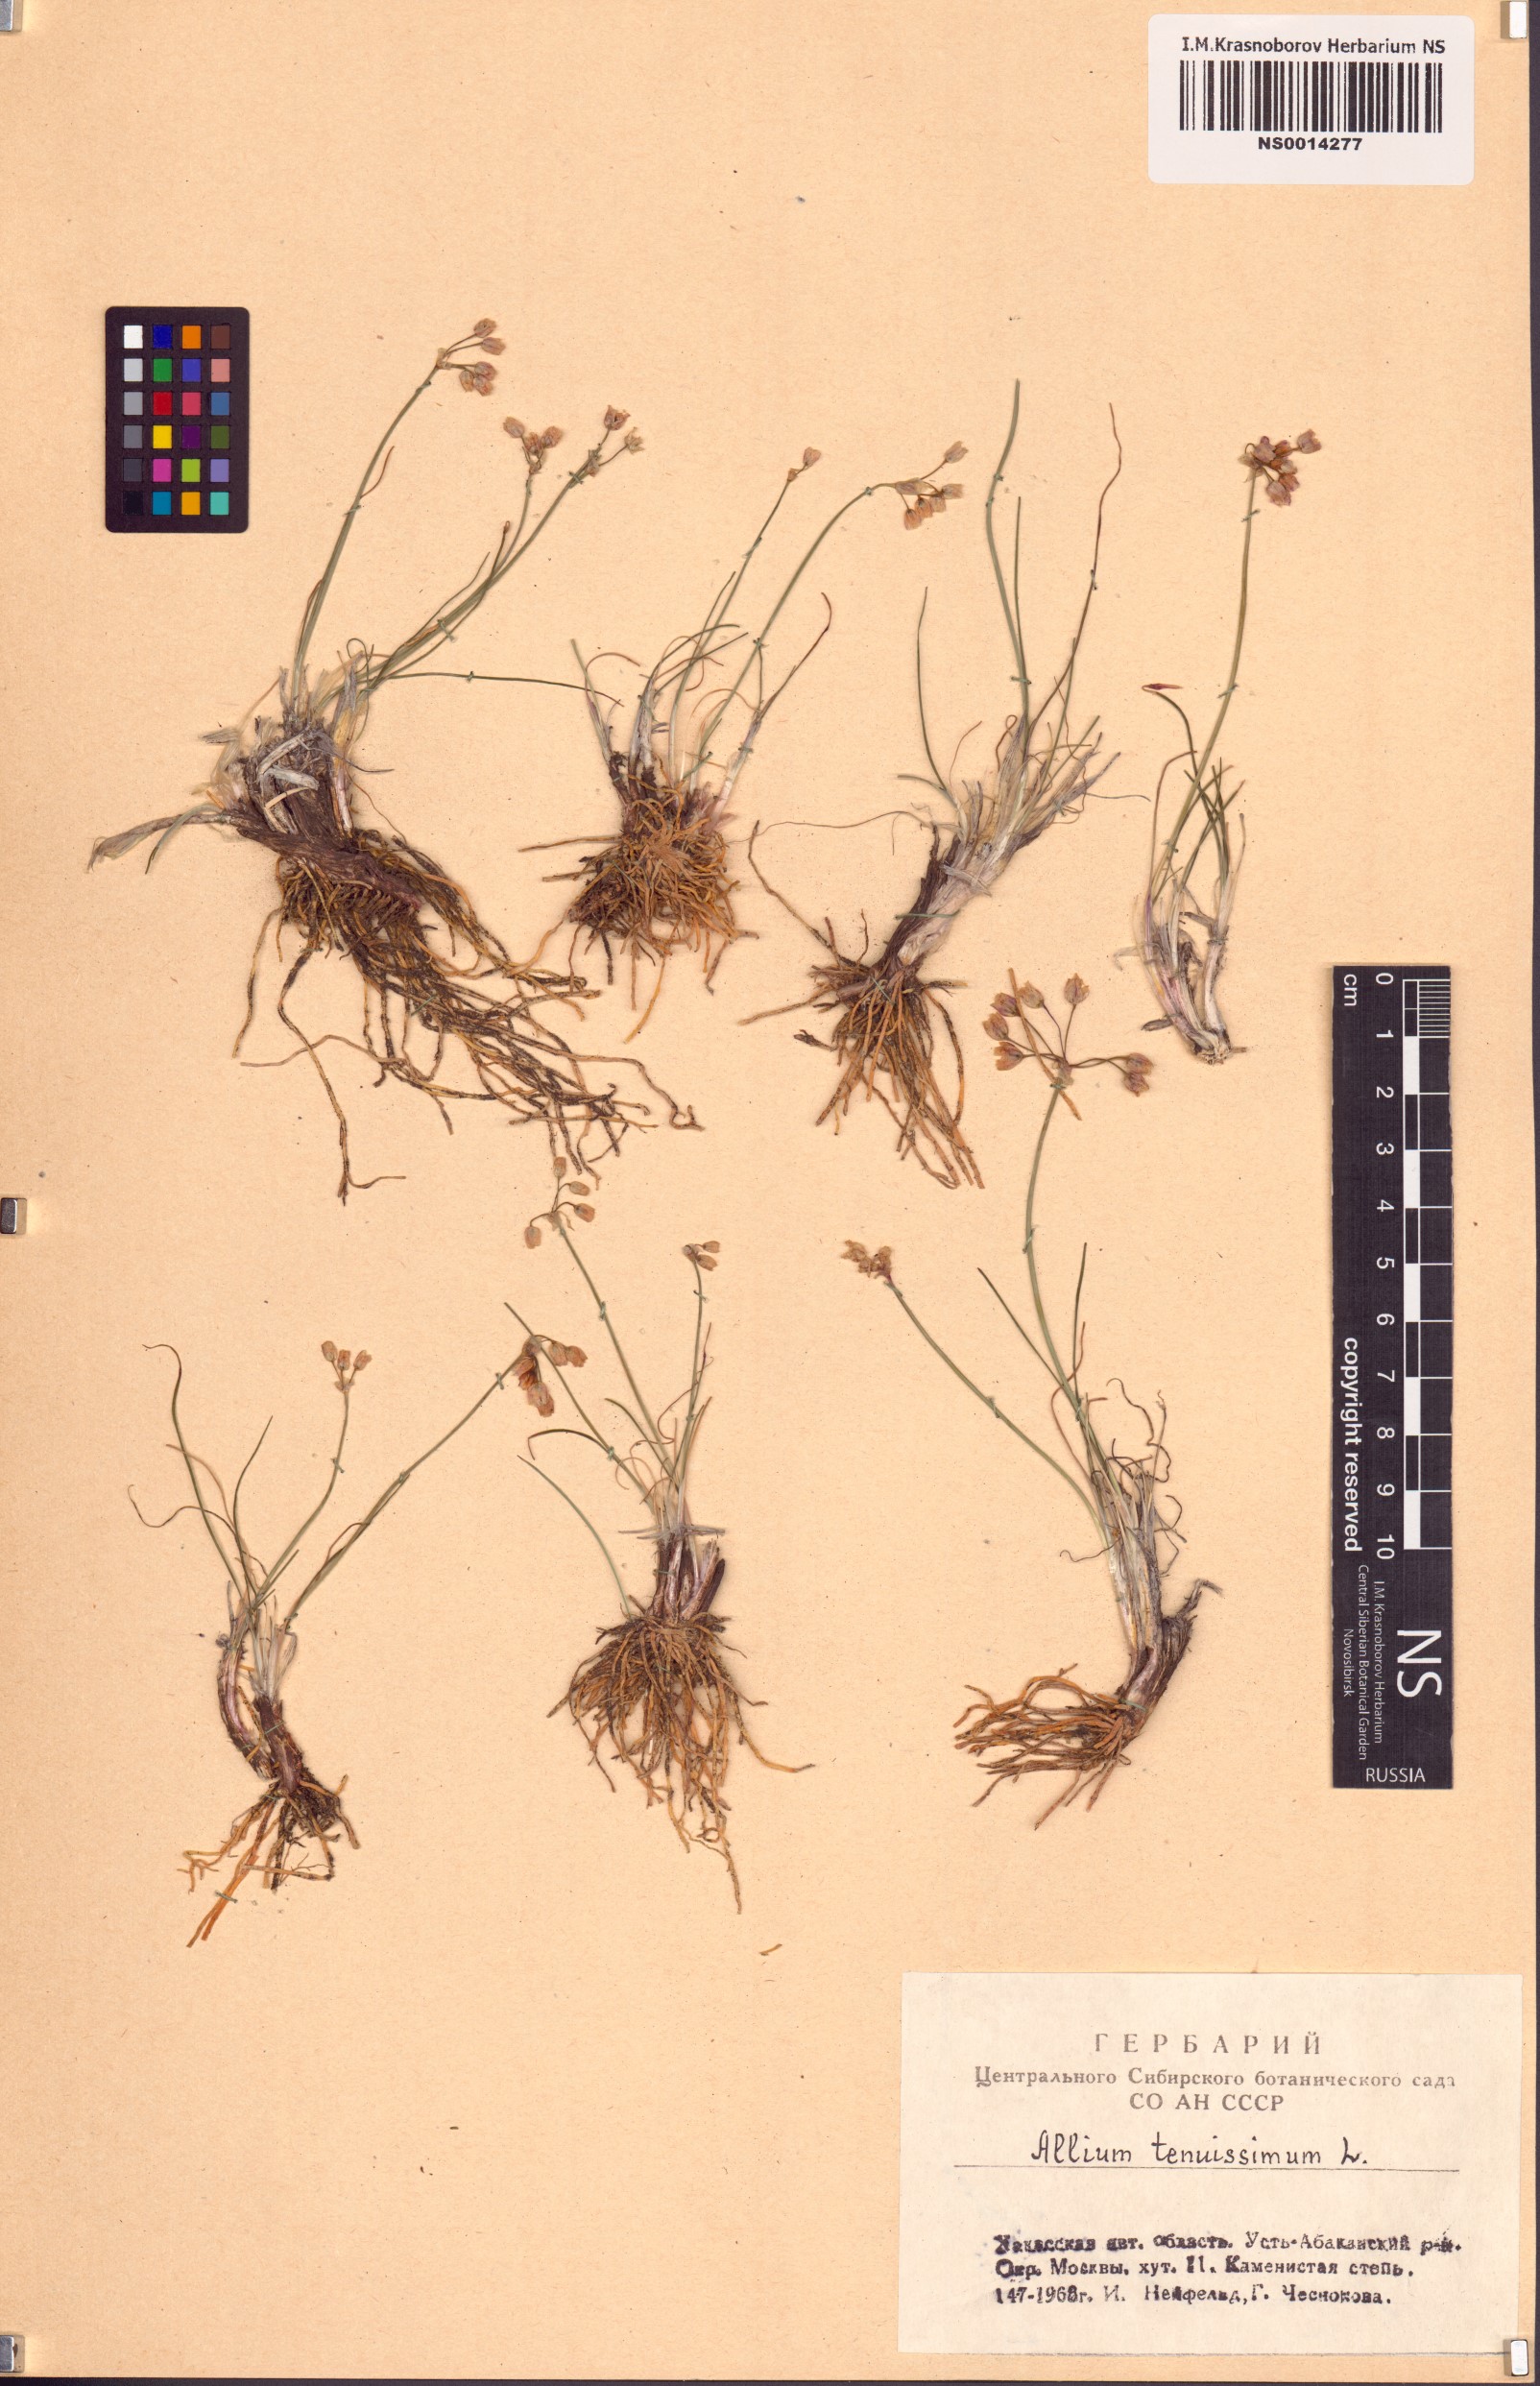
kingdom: Plantae
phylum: Tracheophyta
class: Liliopsida
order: Asparagales
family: Amaryllidaceae
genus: Allium
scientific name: Allium tenuissimum
